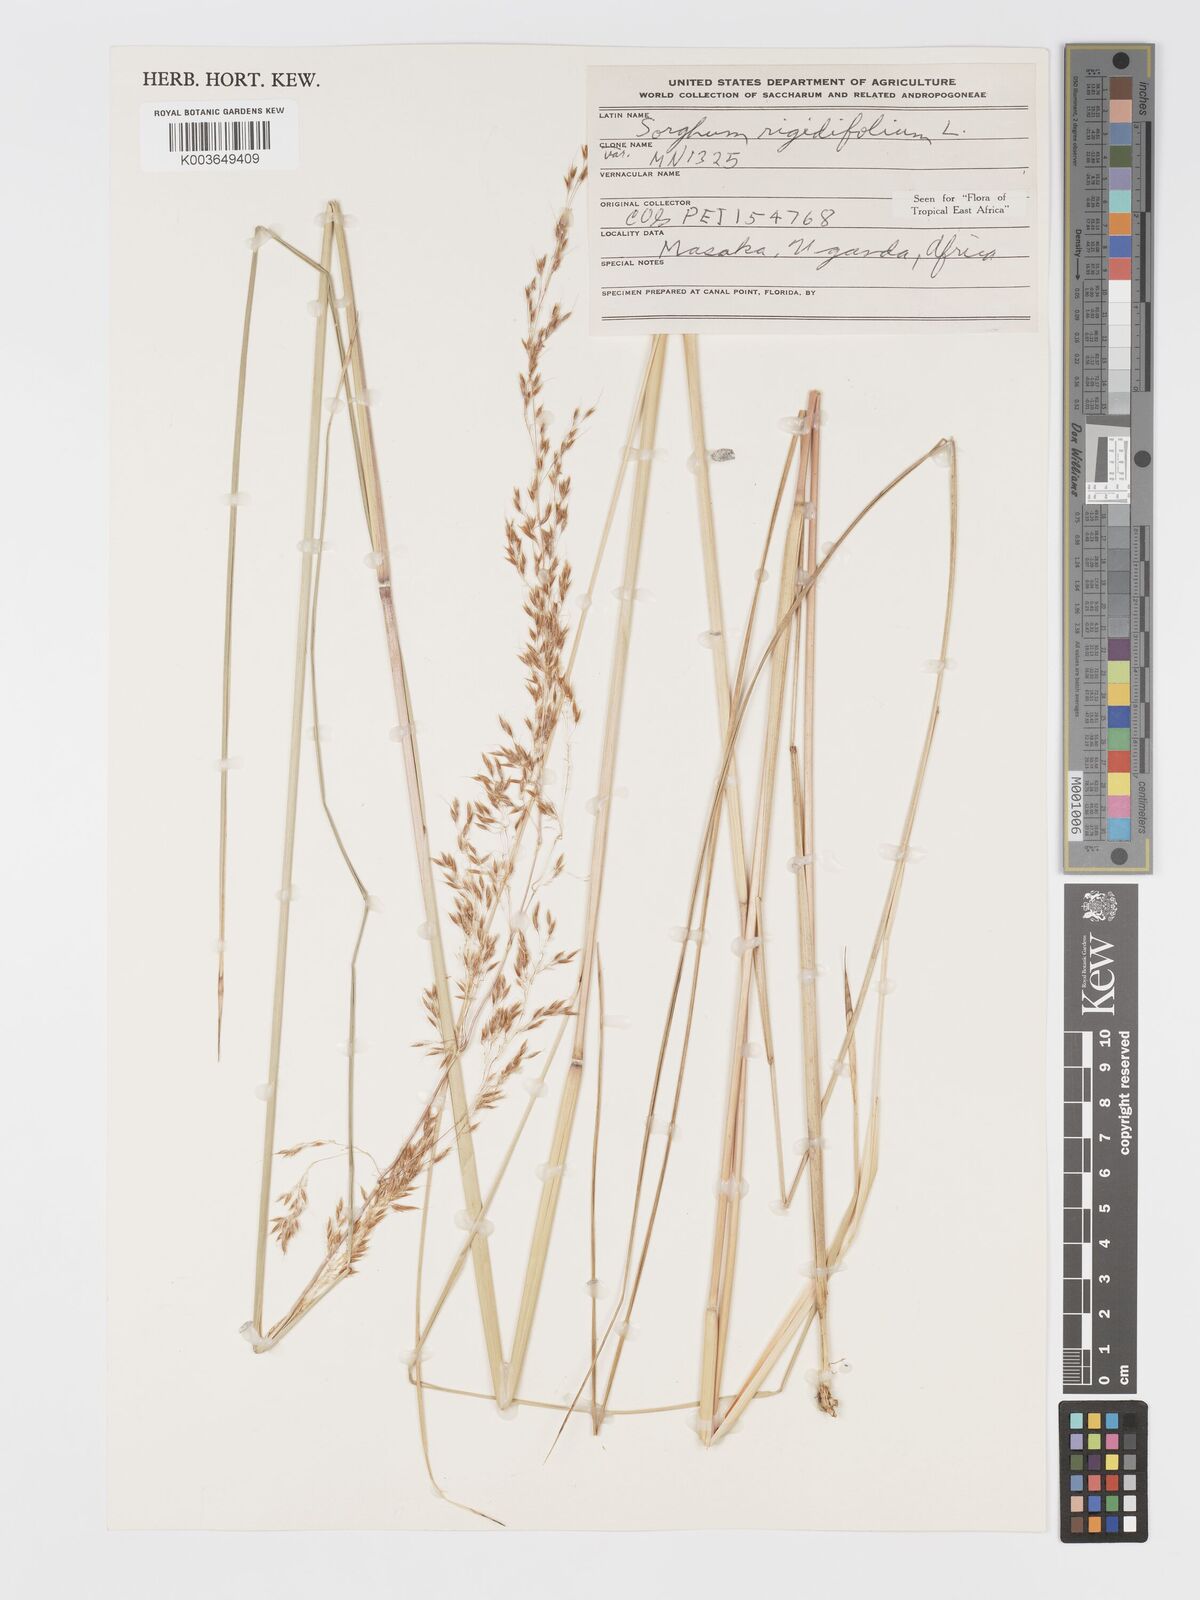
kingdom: Plantae
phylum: Tracheophyta
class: Liliopsida
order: Poales
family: Poaceae
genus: Sorghastrum
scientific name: Sorghastrum stipoides
